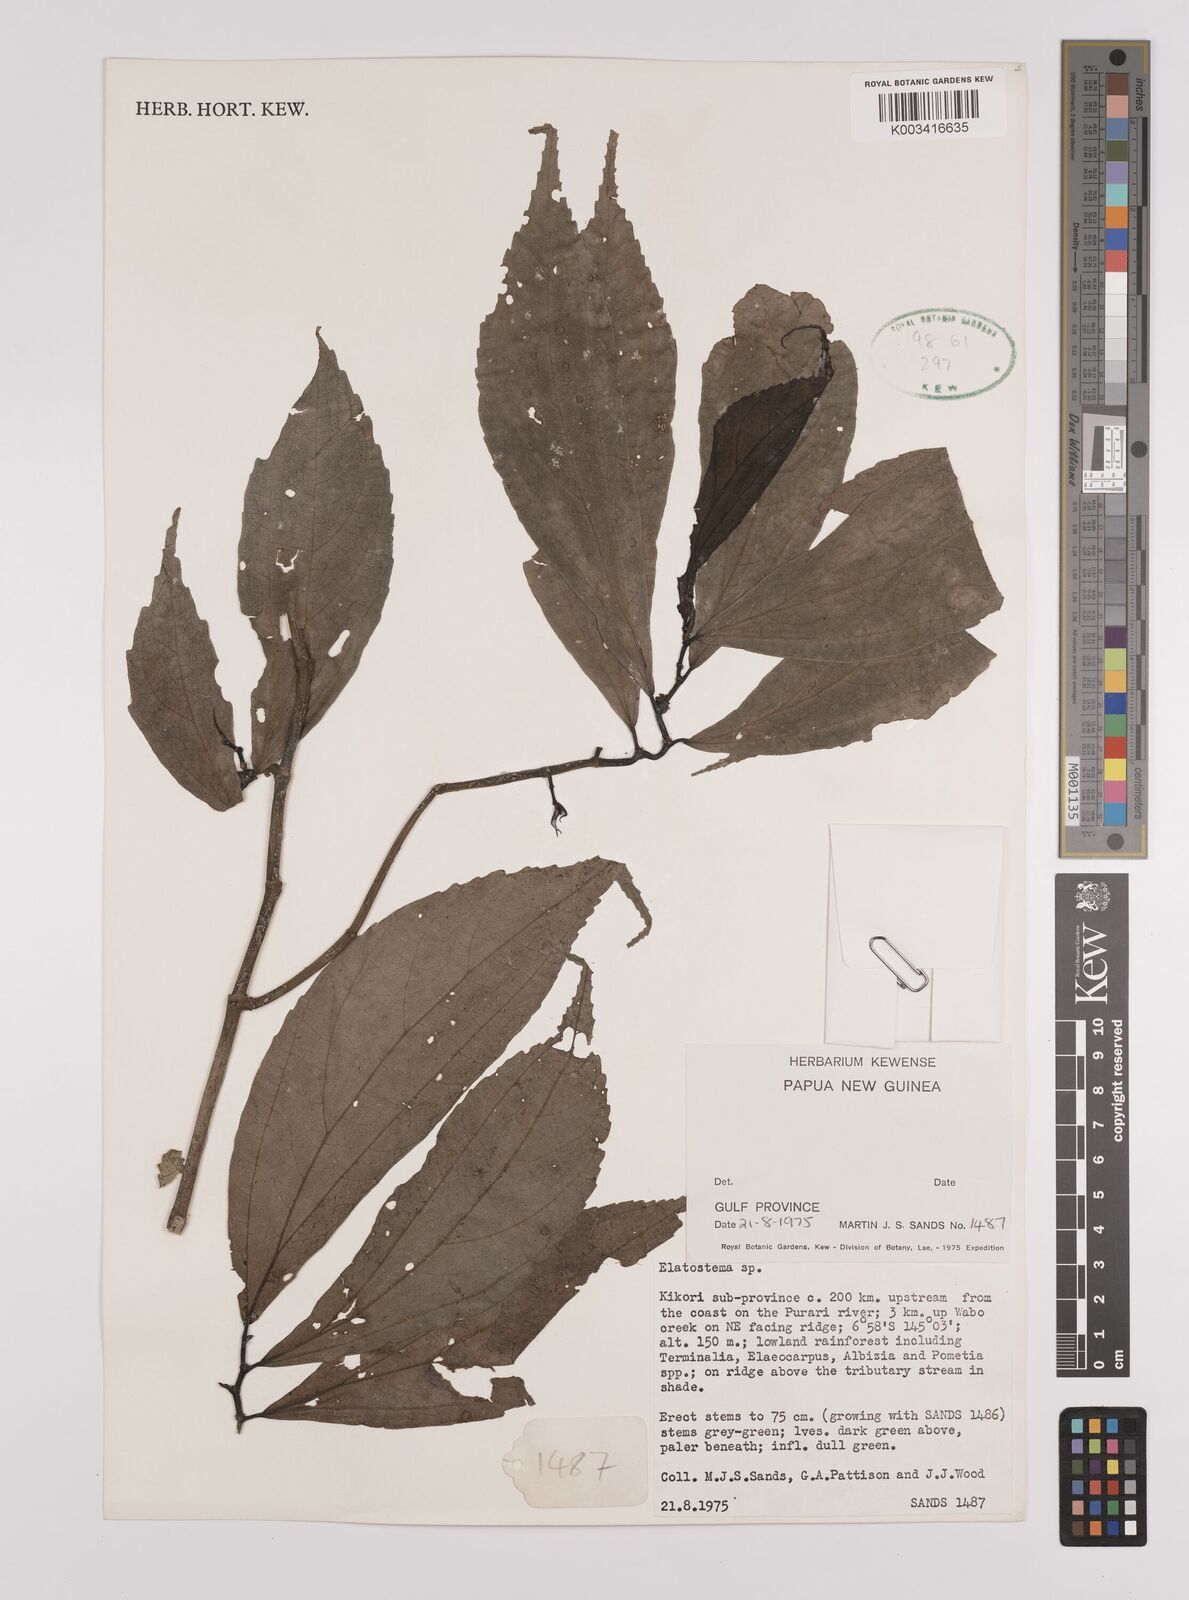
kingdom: Plantae
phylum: Tracheophyta
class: Magnoliopsida
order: Rosales
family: Urticaceae
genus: Elatostema
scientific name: Elatostema
